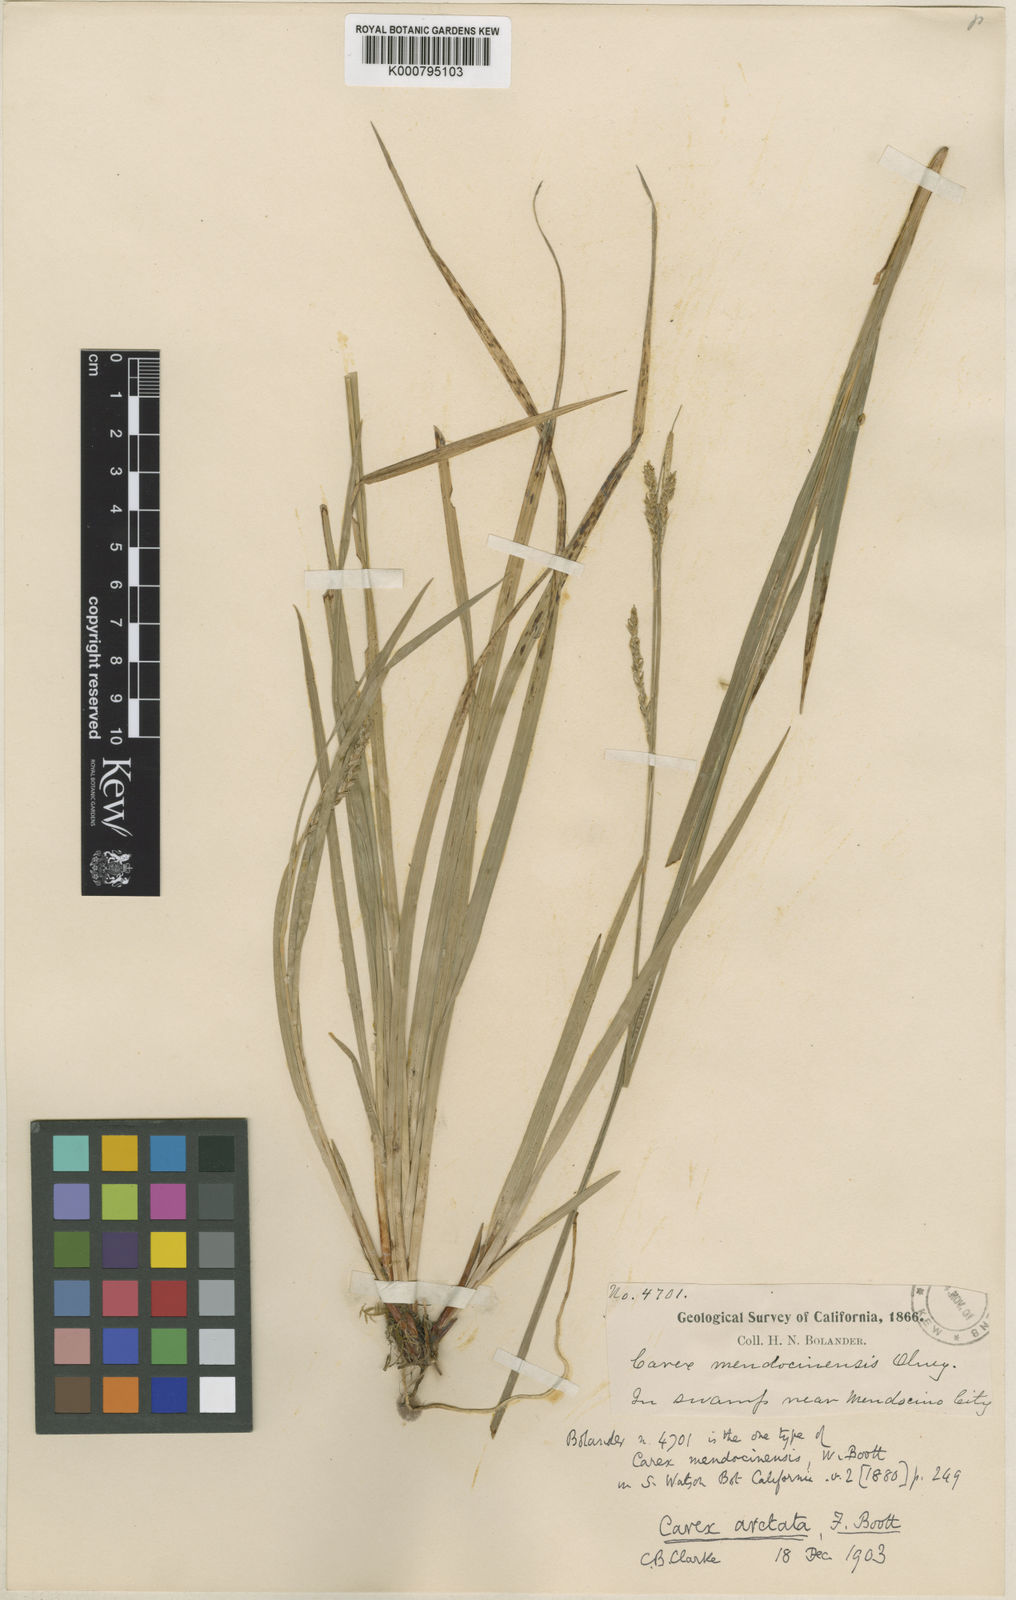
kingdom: Plantae
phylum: Tracheophyta
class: Liliopsida
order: Poales
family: Cyperaceae
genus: Carex
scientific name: Carex mendocinensis
